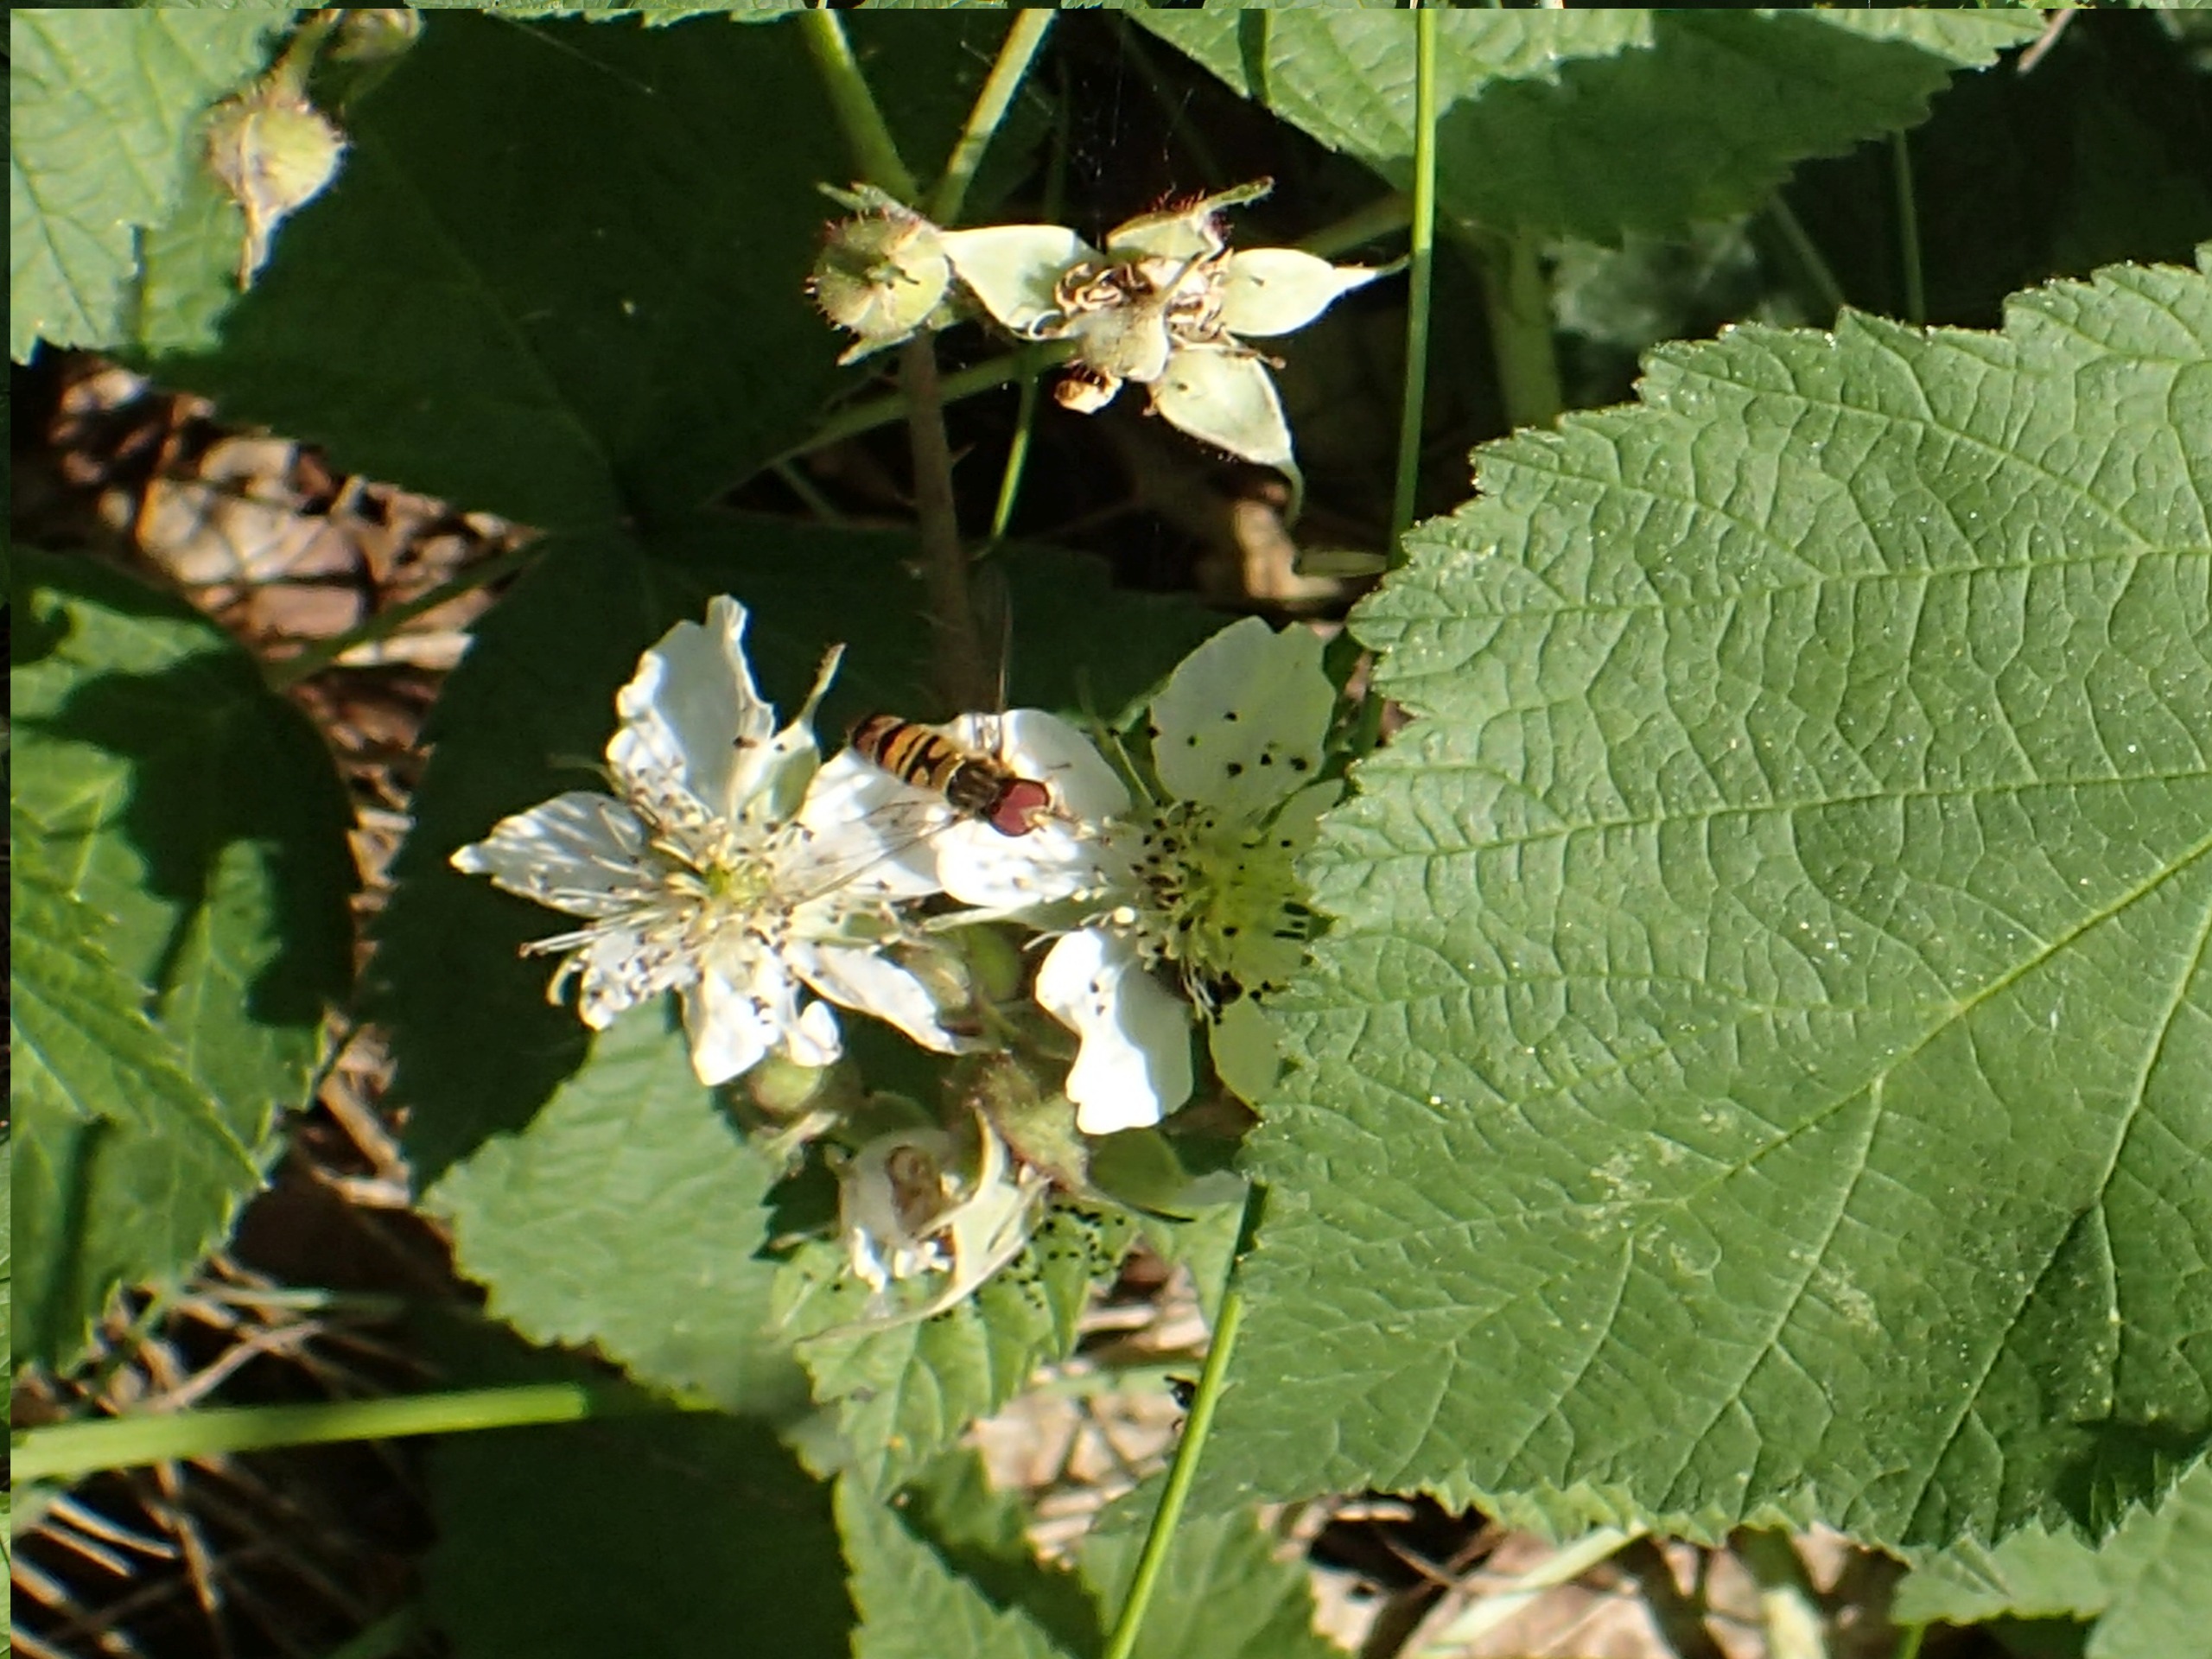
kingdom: Animalia
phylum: Arthropoda
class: Insecta
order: Diptera
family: Syrphidae
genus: Episyrphus
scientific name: Episyrphus balteatus
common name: Dobbeltbåndet svirreflue
